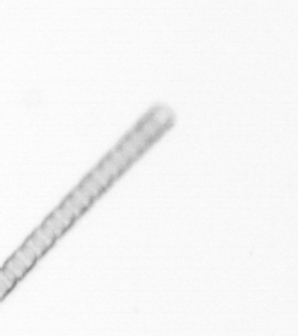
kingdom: Chromista
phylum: Ochrophyta
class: Bacillariophyceae
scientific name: Bacillariophyceae
